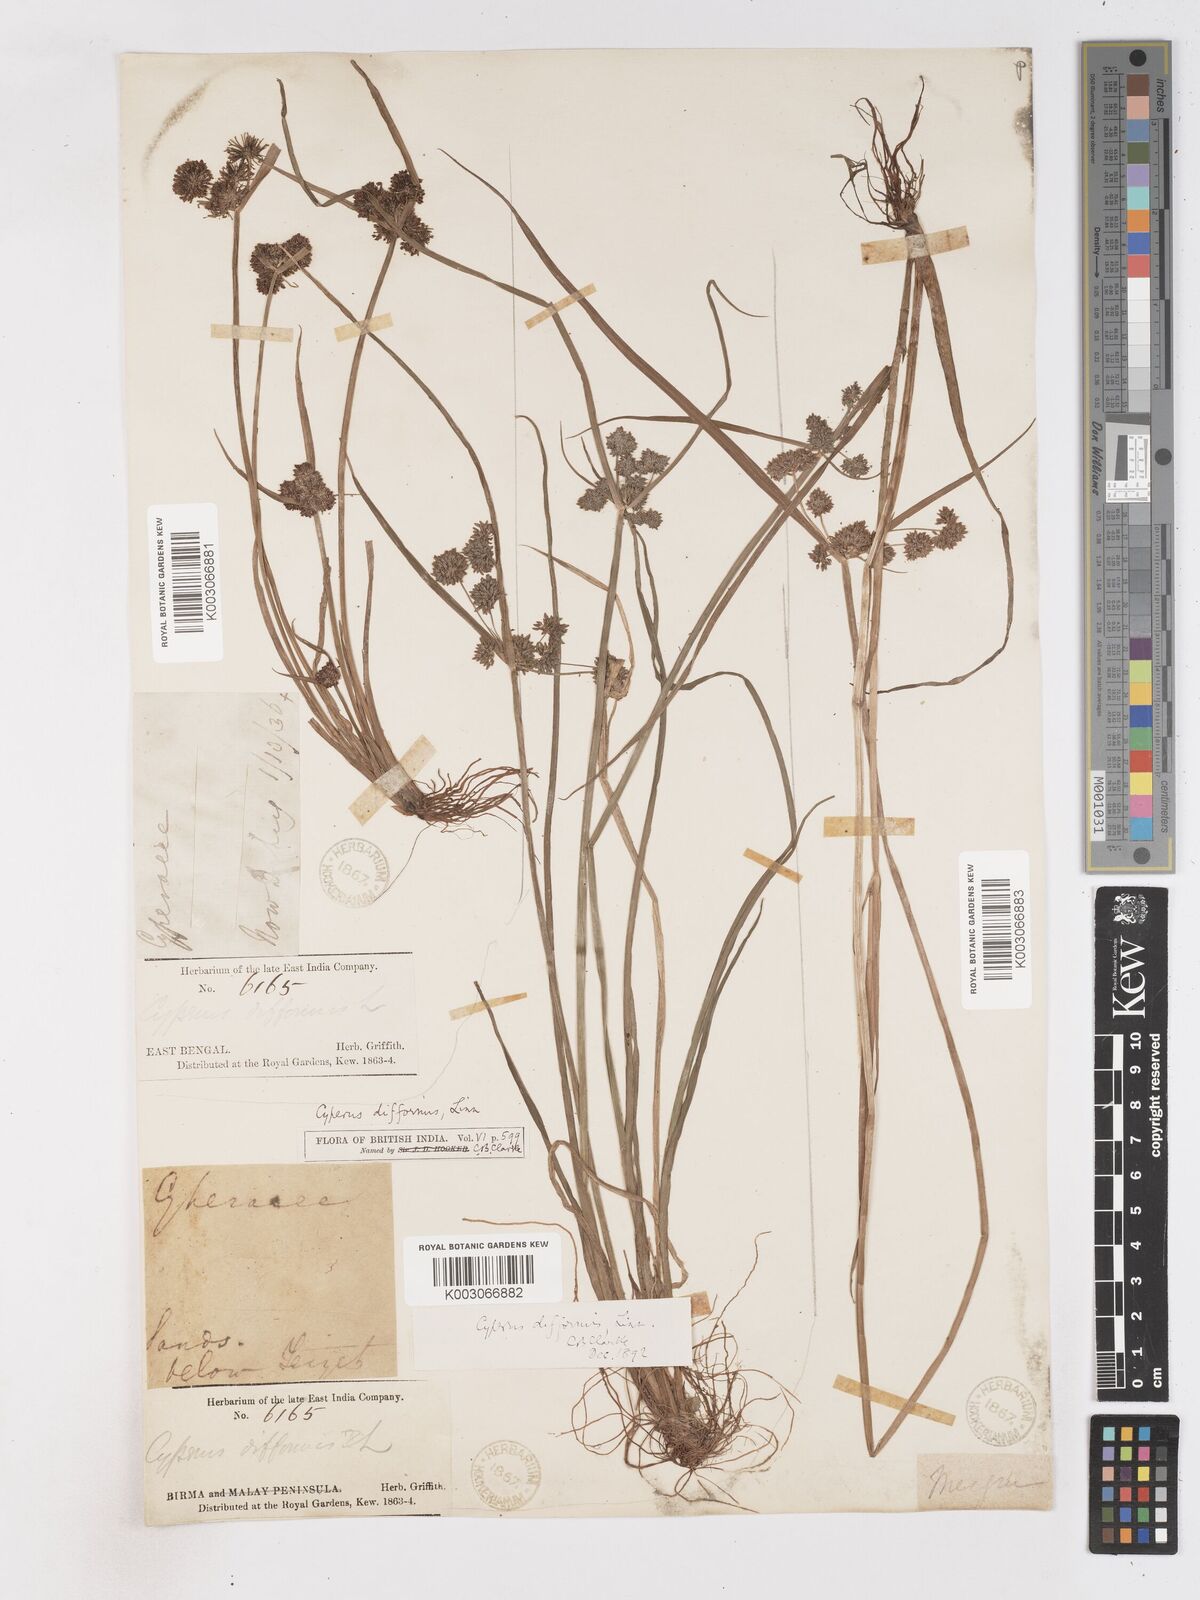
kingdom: Plantae
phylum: Tracheophyta
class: Liliopsida
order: Poales
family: Cyperaceae
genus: Cyperus
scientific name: Cyperus difformis
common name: Variable flatsedge
